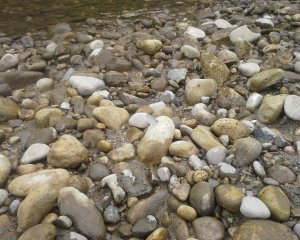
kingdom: Animalia
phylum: Arthropoda
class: Insecta
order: Lepidoptera
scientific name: Lepidoptera
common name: Butterflies
